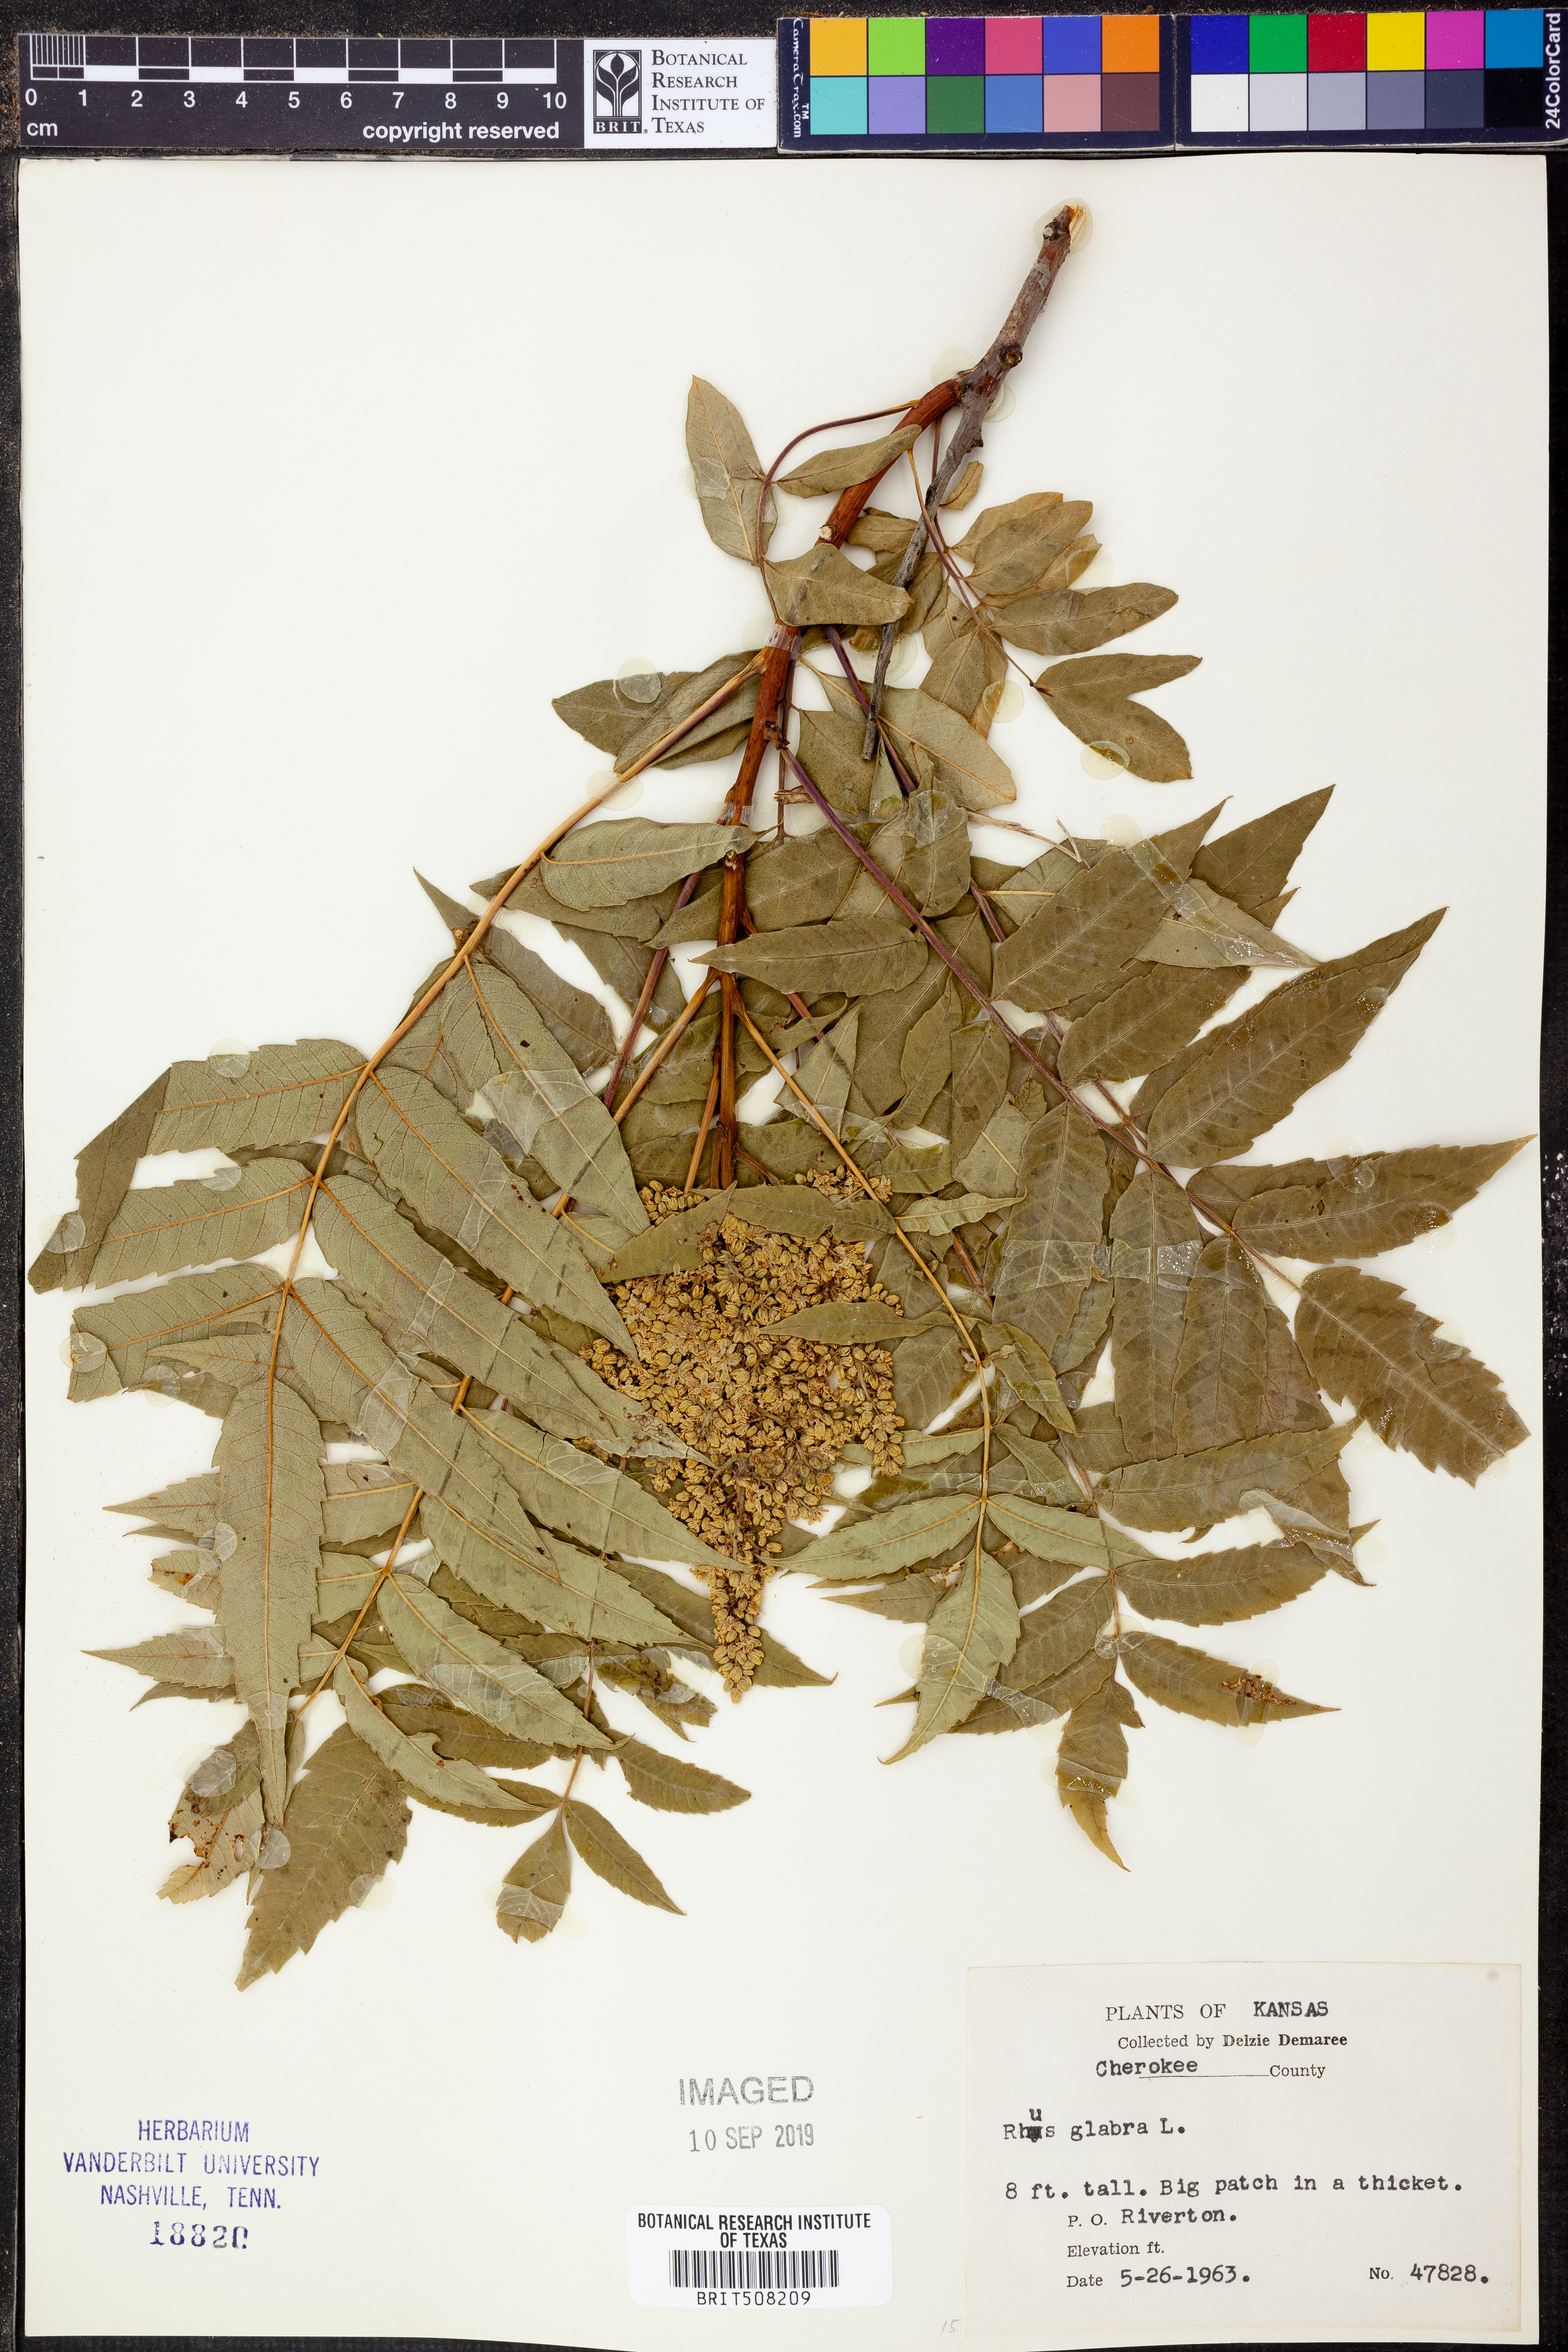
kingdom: Plantae
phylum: Tracheophyta
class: Magnoliopsida
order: Sapindales
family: Anacardiaceae
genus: Rhus
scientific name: Rhus glabra
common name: Scarlet sumac
